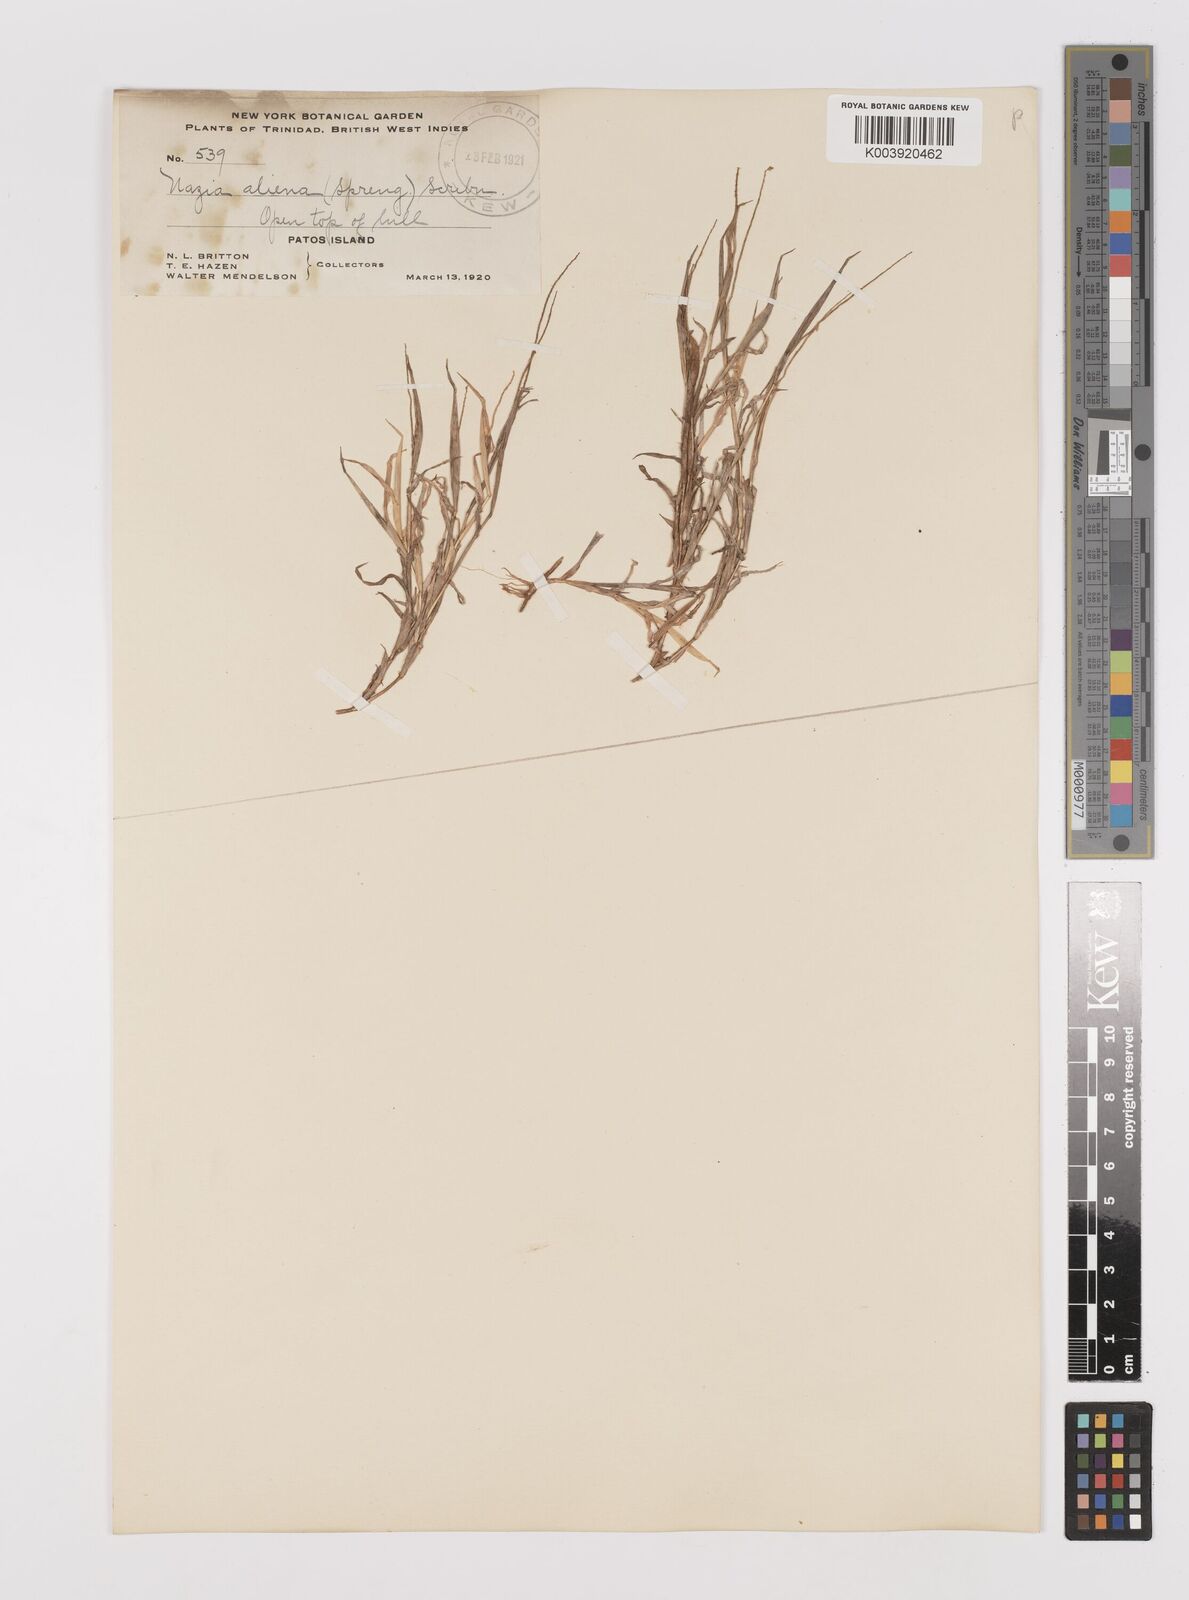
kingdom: Plantae
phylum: Tracheophyta
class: Liliopsida
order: Poales
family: Poaceae
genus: Tragus
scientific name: Tragus berteronianus
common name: African bur-grass
